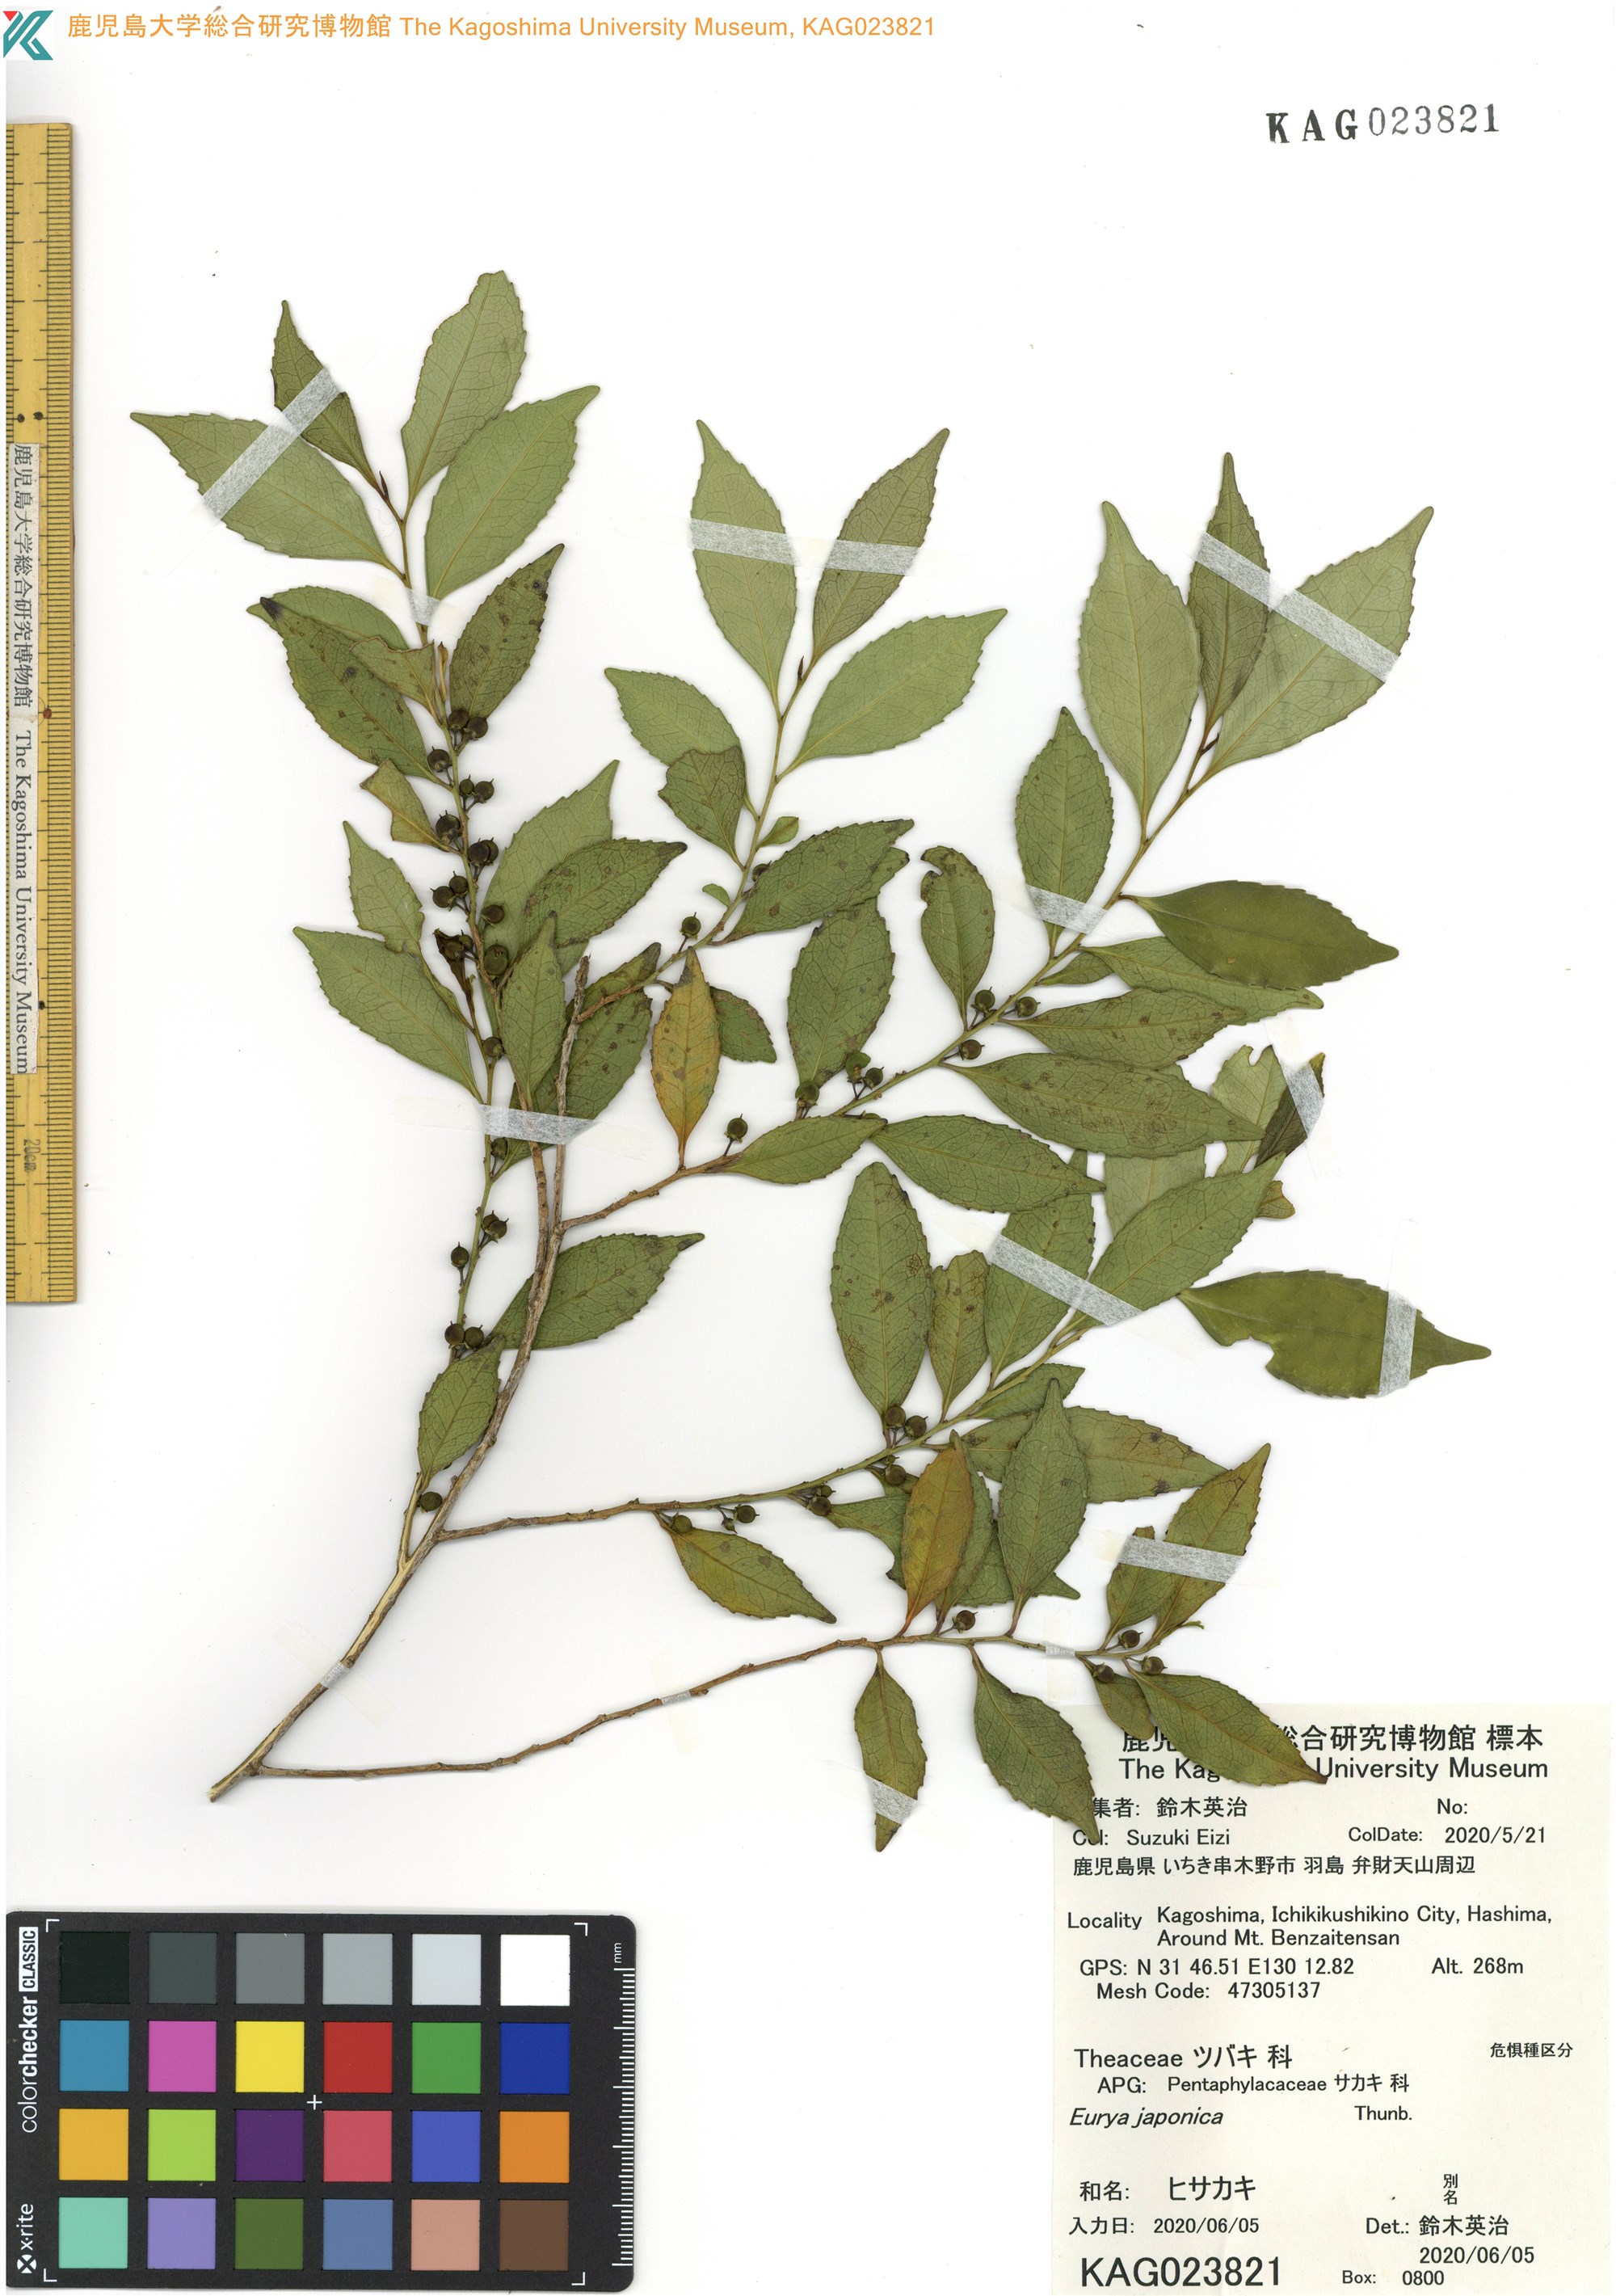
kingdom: Plantae
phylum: Tracheophyta
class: Magnoliopsida
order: Ericales
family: Pentaphylacaceae
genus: Eurya
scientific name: Eurya japonica
